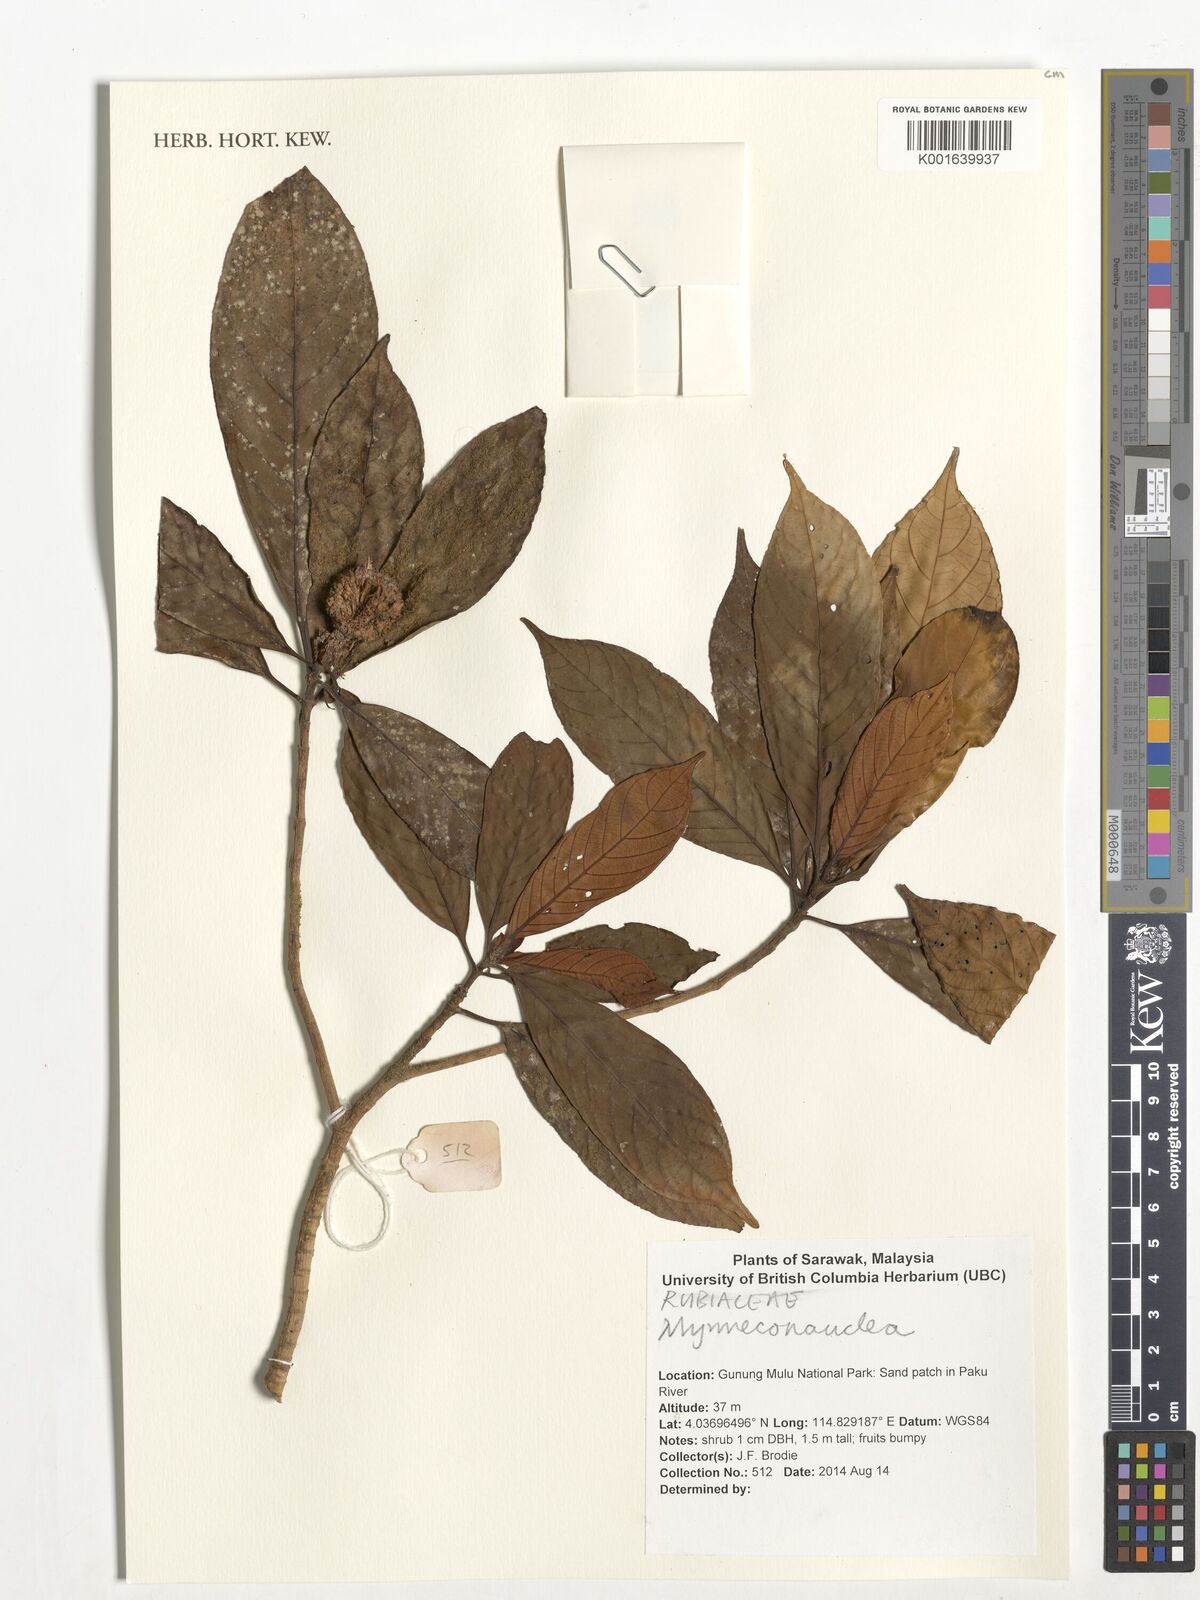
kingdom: Plantae
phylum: Tracheophyta
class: Magnoliopsida
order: Gentianales
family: Rubiaceae
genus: Myrmeconauclea
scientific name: Myrmeconauclea
